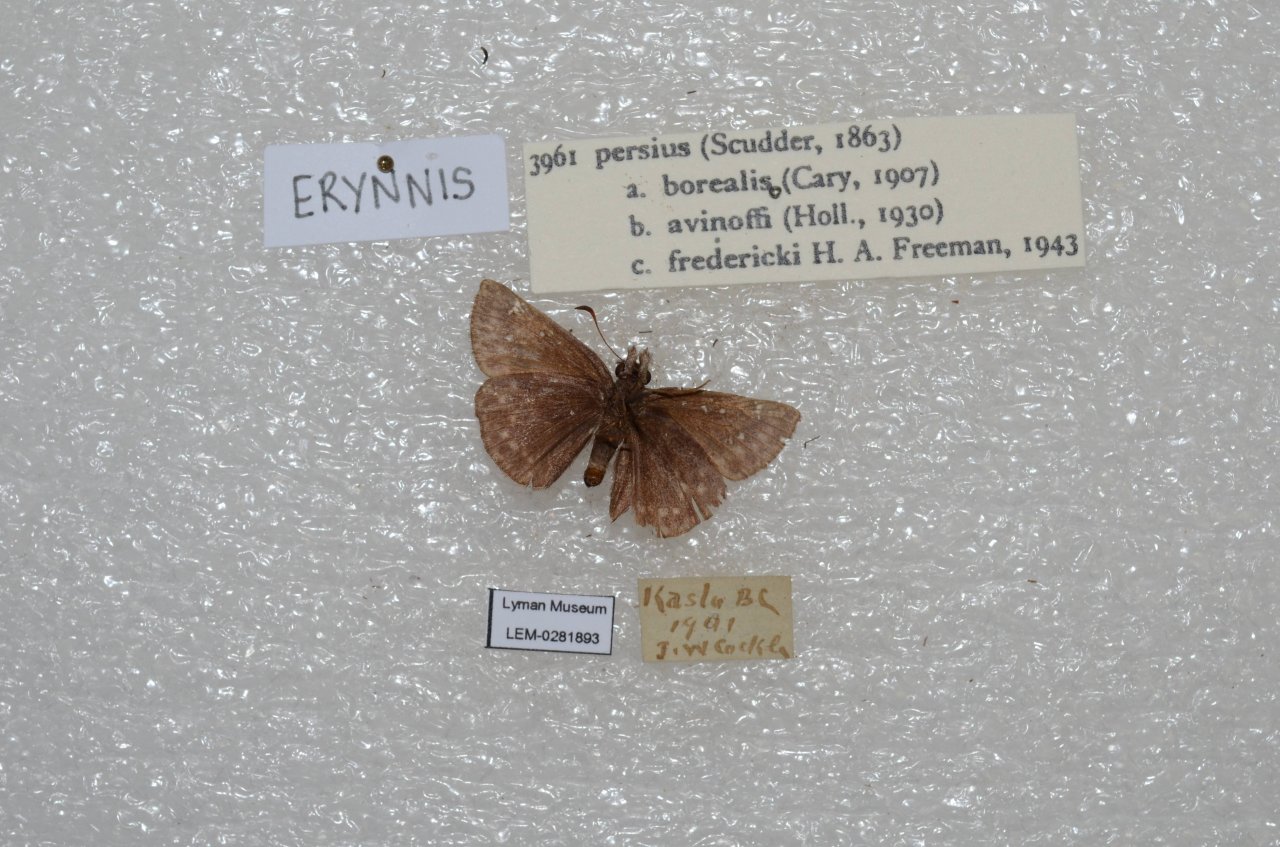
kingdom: Animalia
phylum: Arthropoda
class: Insecta
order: Lepidoptera
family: Hesperiidae
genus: Gesta
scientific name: Gesta
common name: Persius Duskywing
